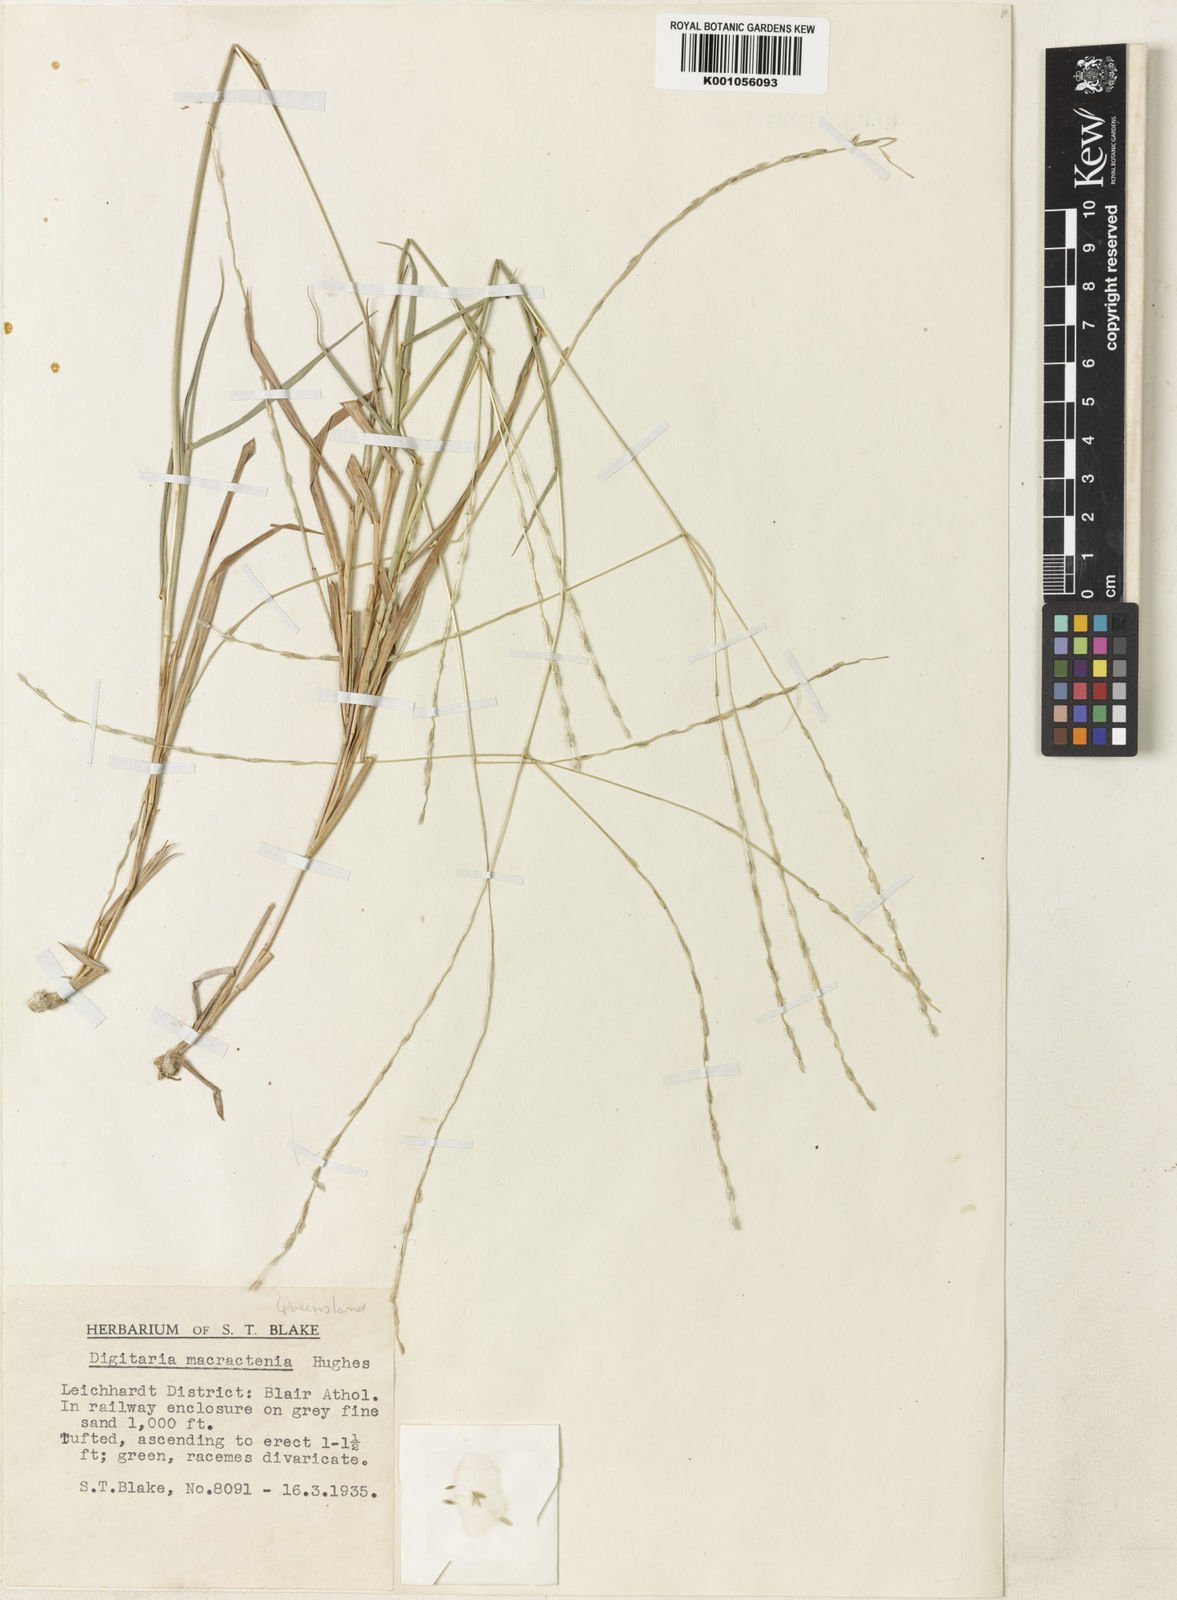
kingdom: Plantae
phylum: Tracheophyta
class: Liliopsida
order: Poales
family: Poaceae
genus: Digitaria
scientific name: Digitaria divaricatissima
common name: Crabgrass
